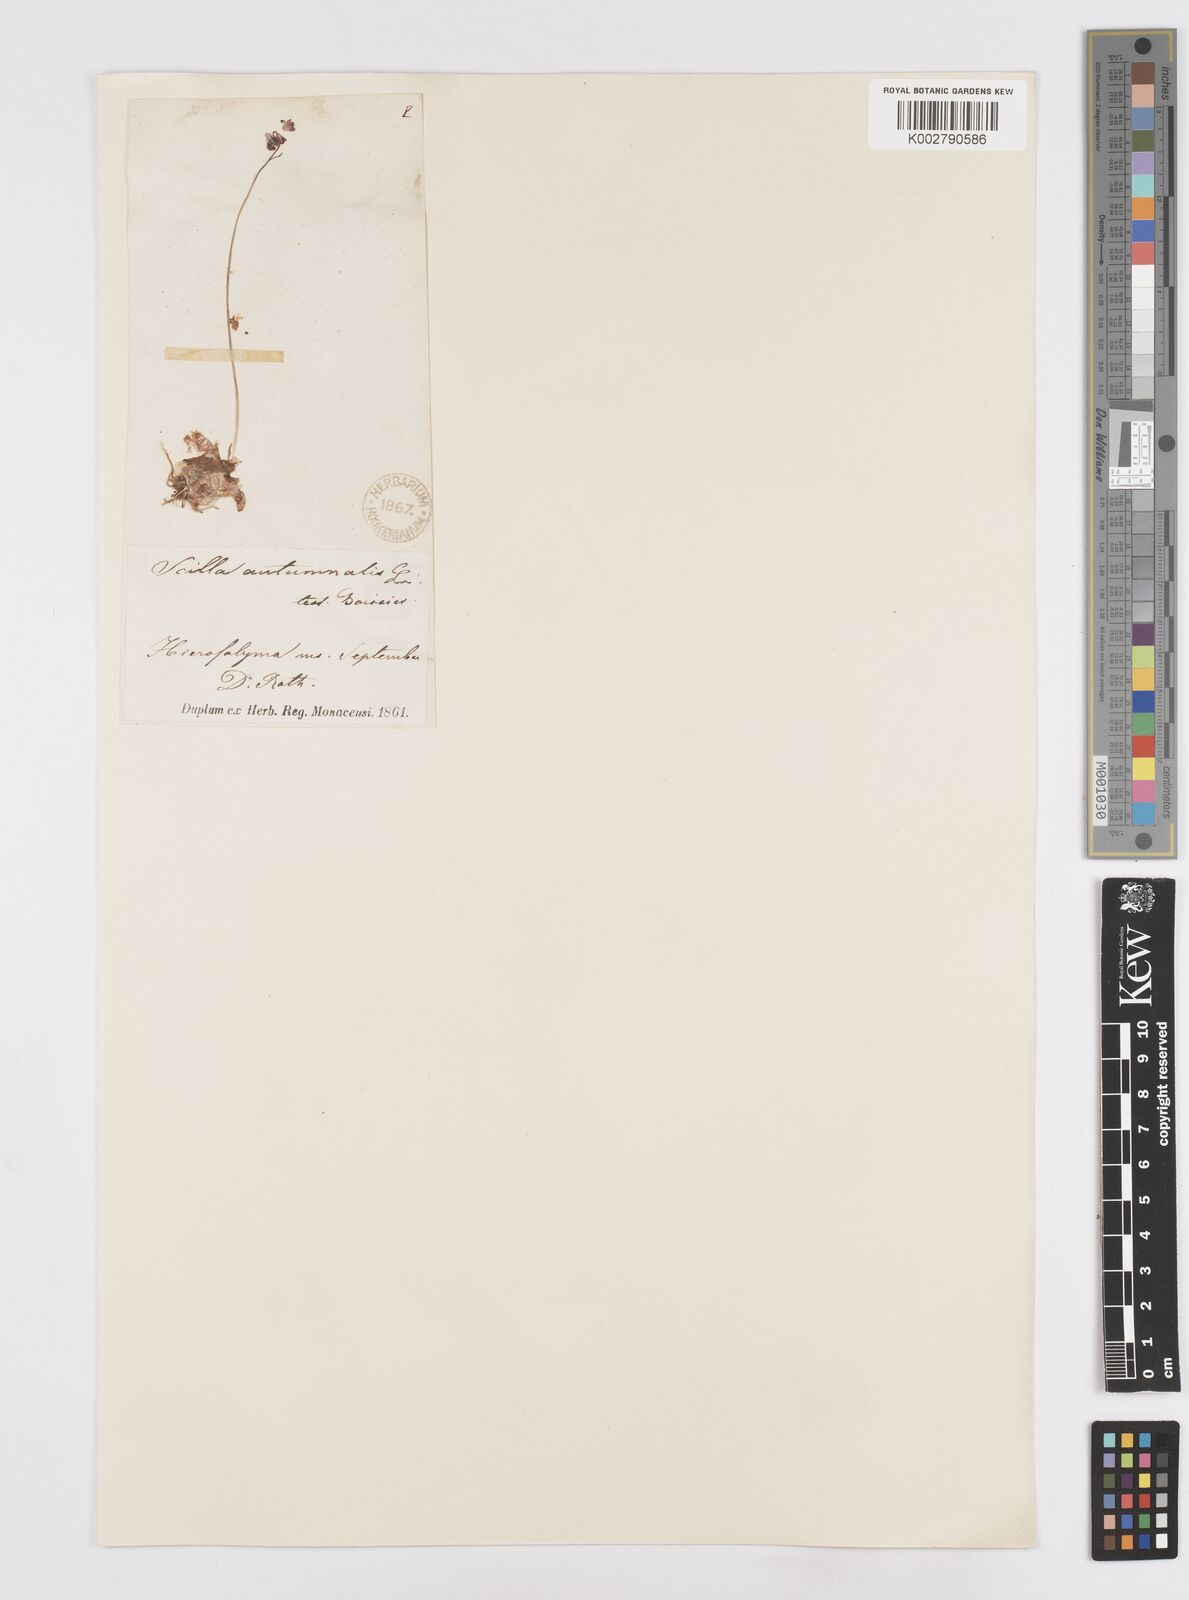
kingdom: Plantae
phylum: Tracheophyta
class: Liliopsida
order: Asparagales
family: Asparagaceae
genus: Prospero
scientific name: Prospero autumnale
